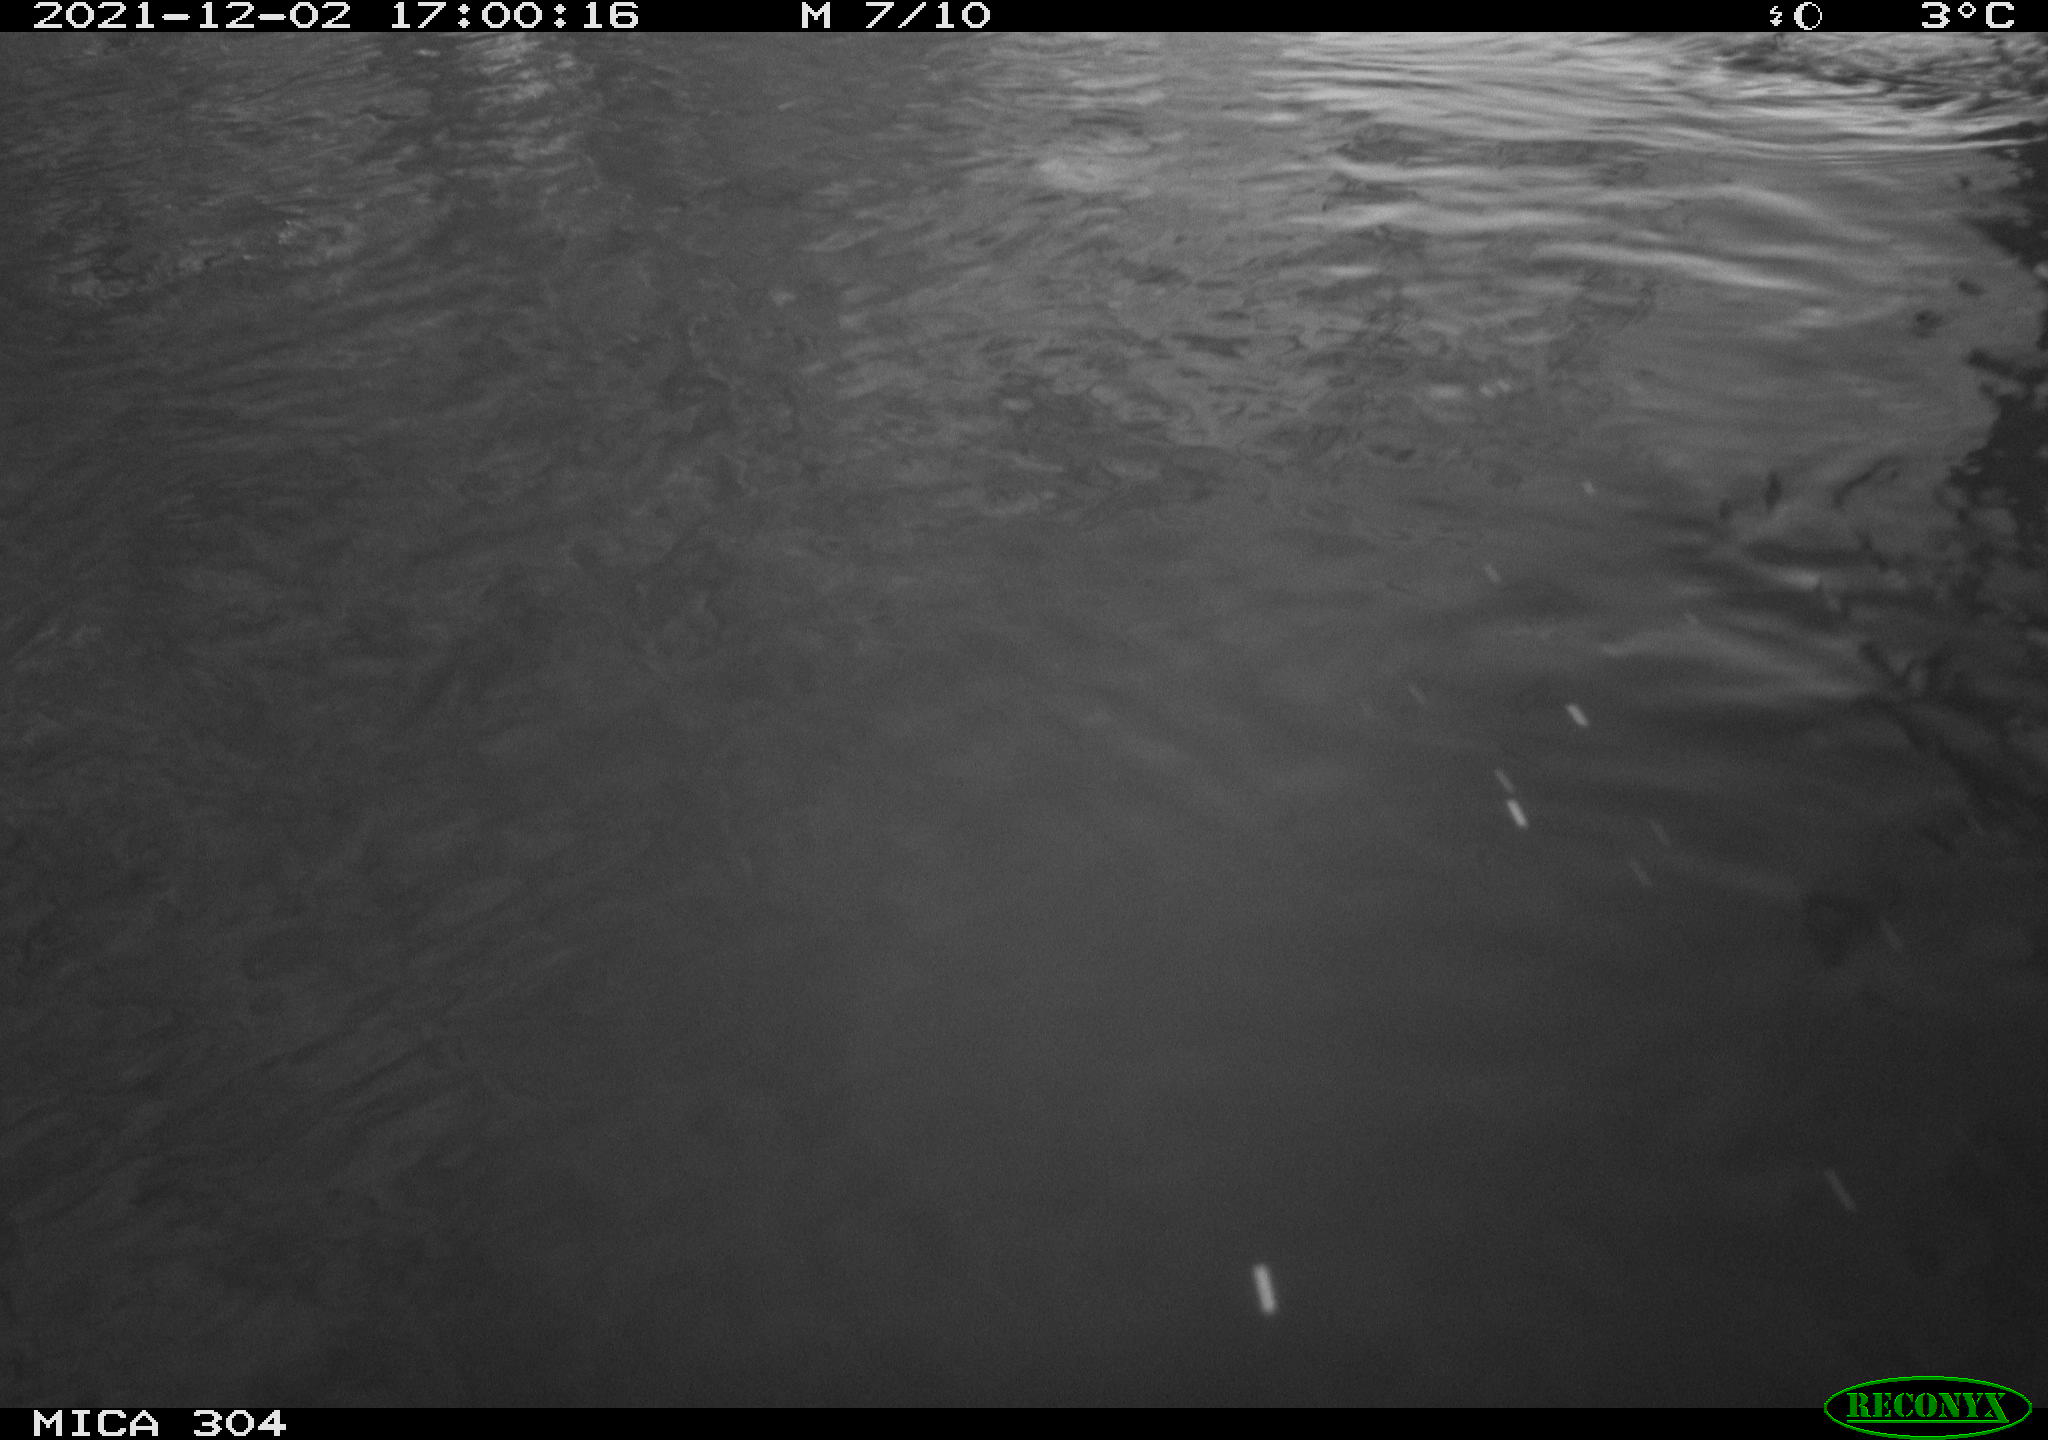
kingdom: Animalia
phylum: Chordata
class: Aves
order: Gruiformes
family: Rallidae
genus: Fulica
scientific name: Fulica atra
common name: Eurasian coot
